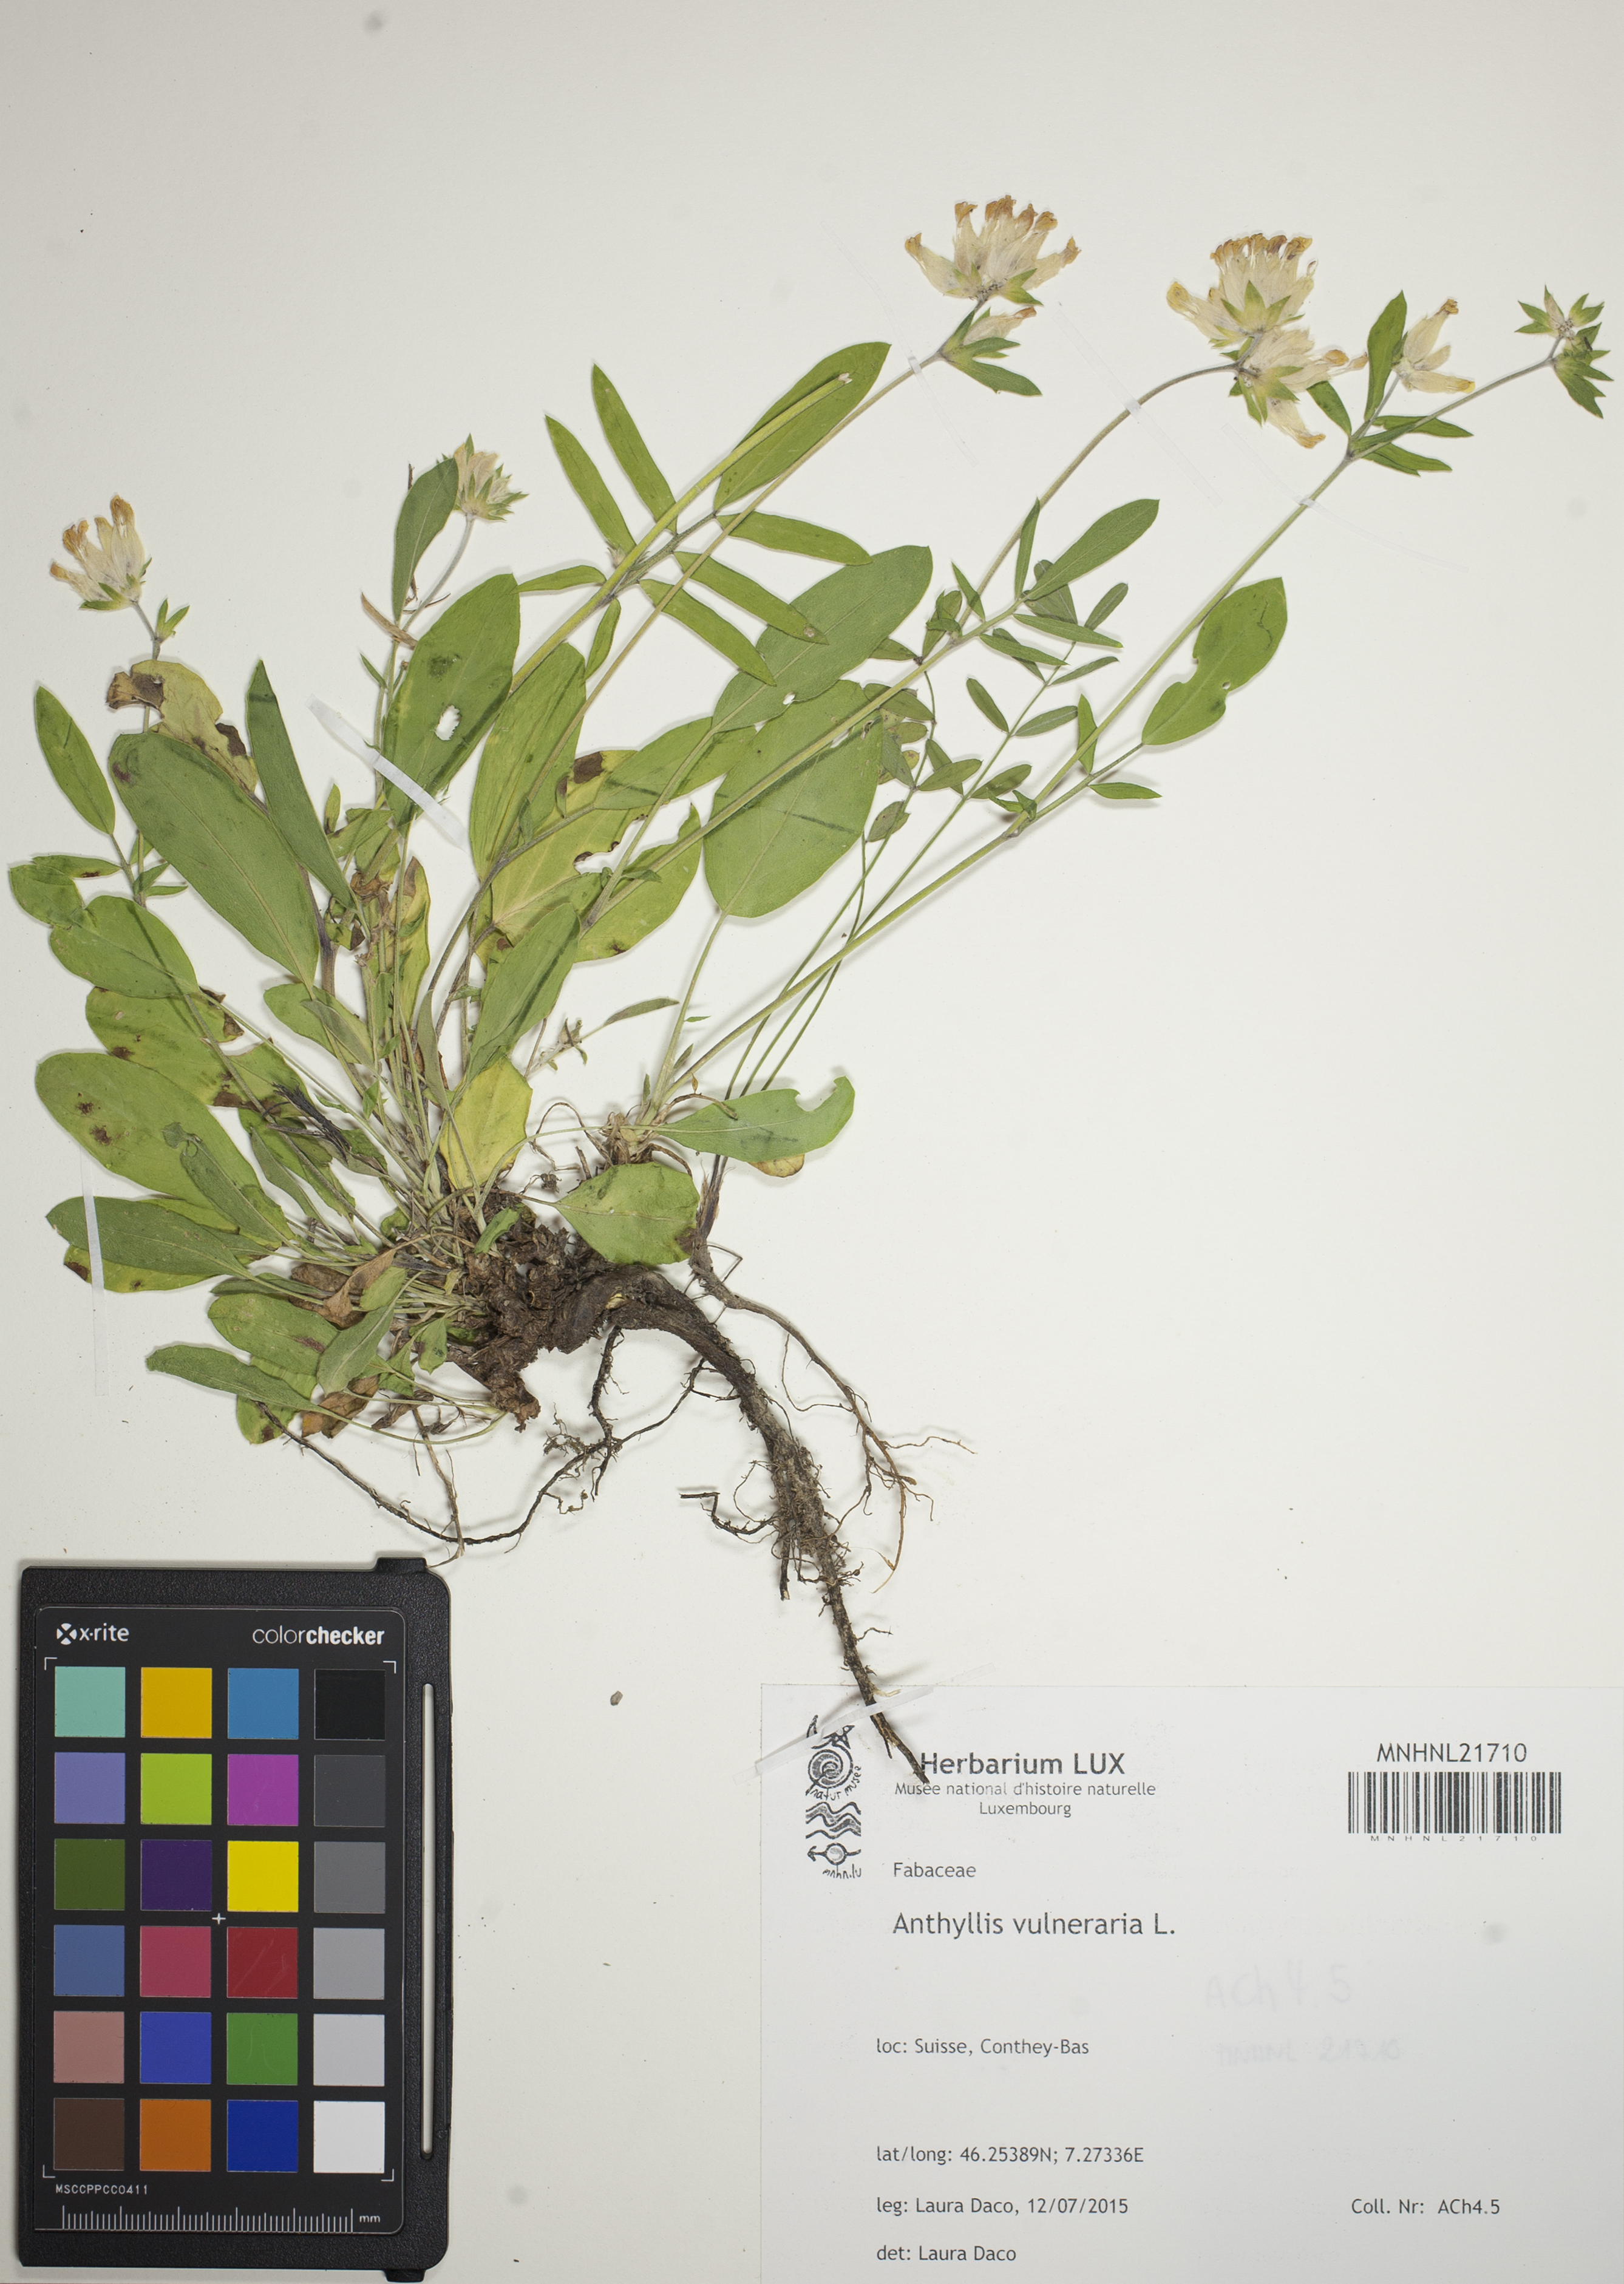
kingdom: Plantae
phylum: Tracheophyta
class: Magnoliopsida
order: Fabales
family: Fabaceae
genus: Anthyllis
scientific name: Anthyllis vulneraria
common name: Kidney vetch
